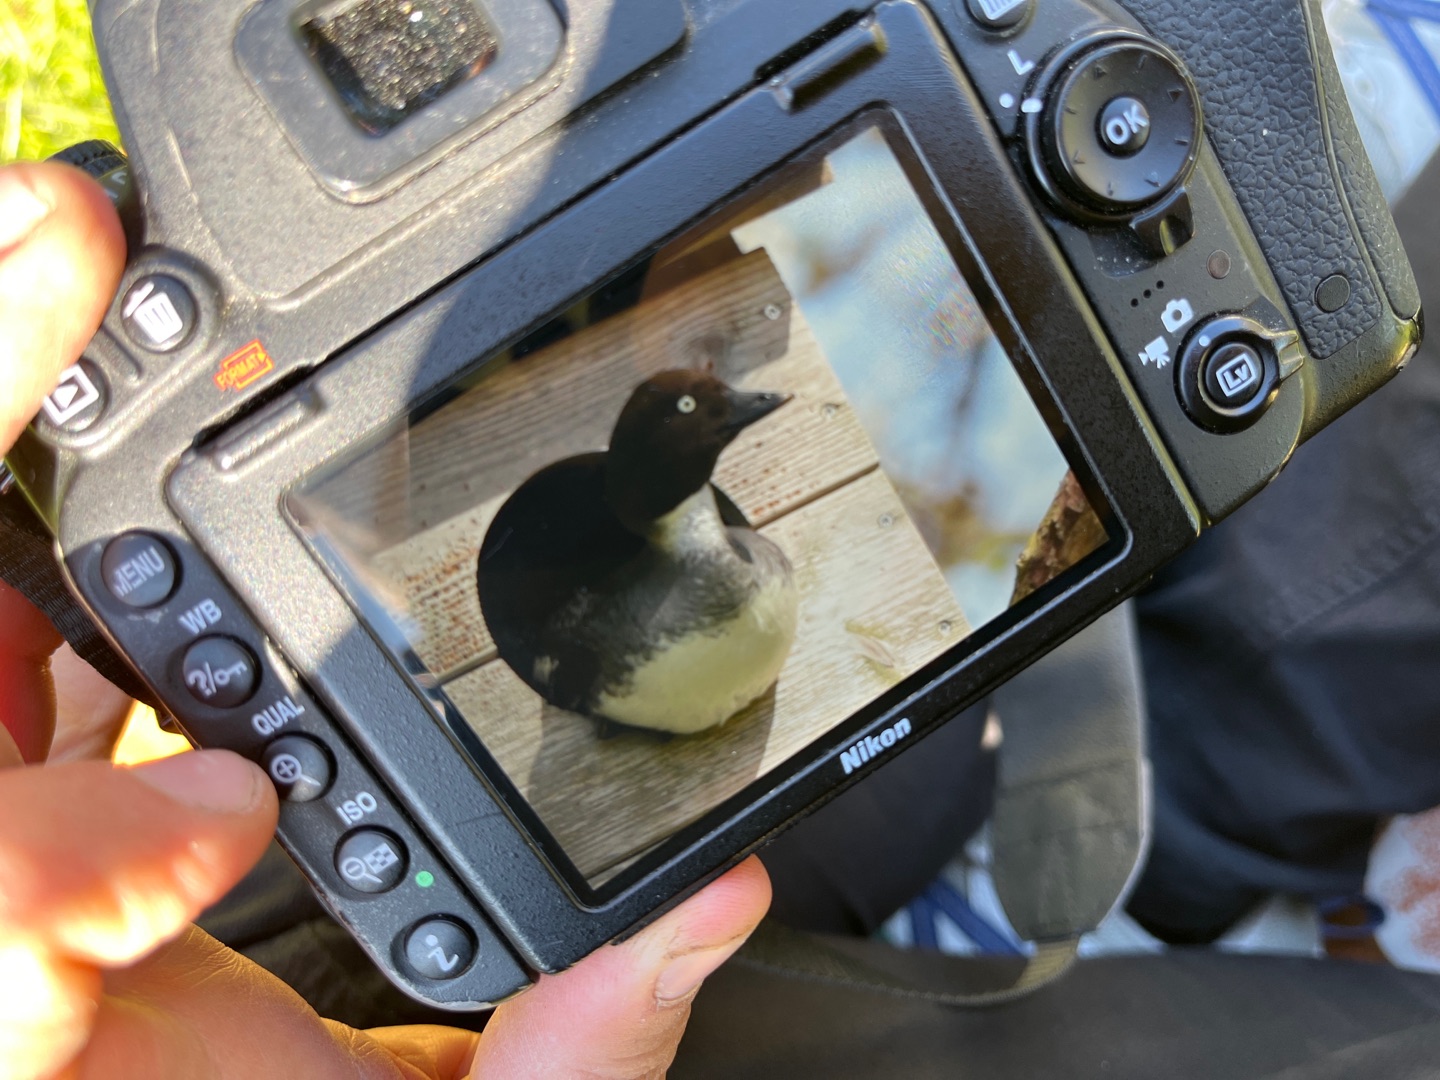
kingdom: Animalia
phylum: Chordata
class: Aves
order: Anseriformes
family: Anatidae
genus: Bucephala
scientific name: Bucephala clangula
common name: Hvinand
